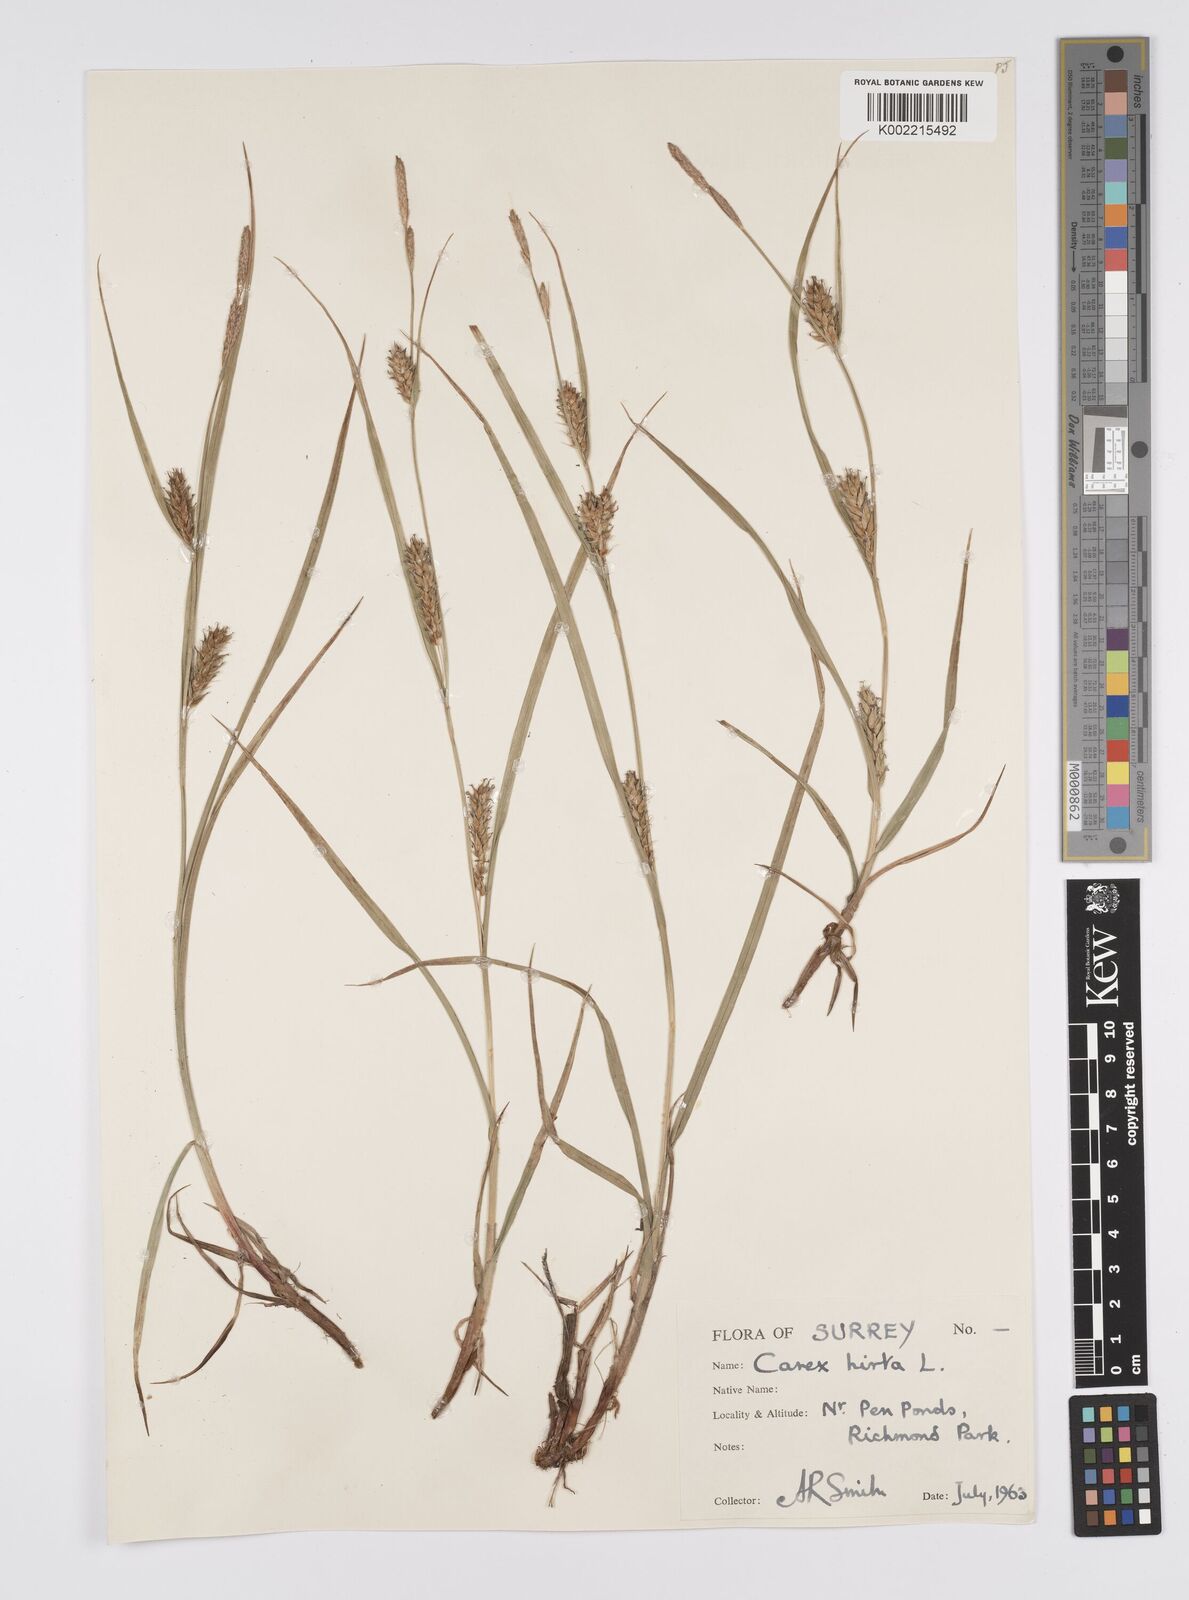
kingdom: Plantae
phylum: Tracheophyta
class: Liliopsida
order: Poales
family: Cyperaceae
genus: Carex
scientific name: Carex hirta
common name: Hairy sedge
